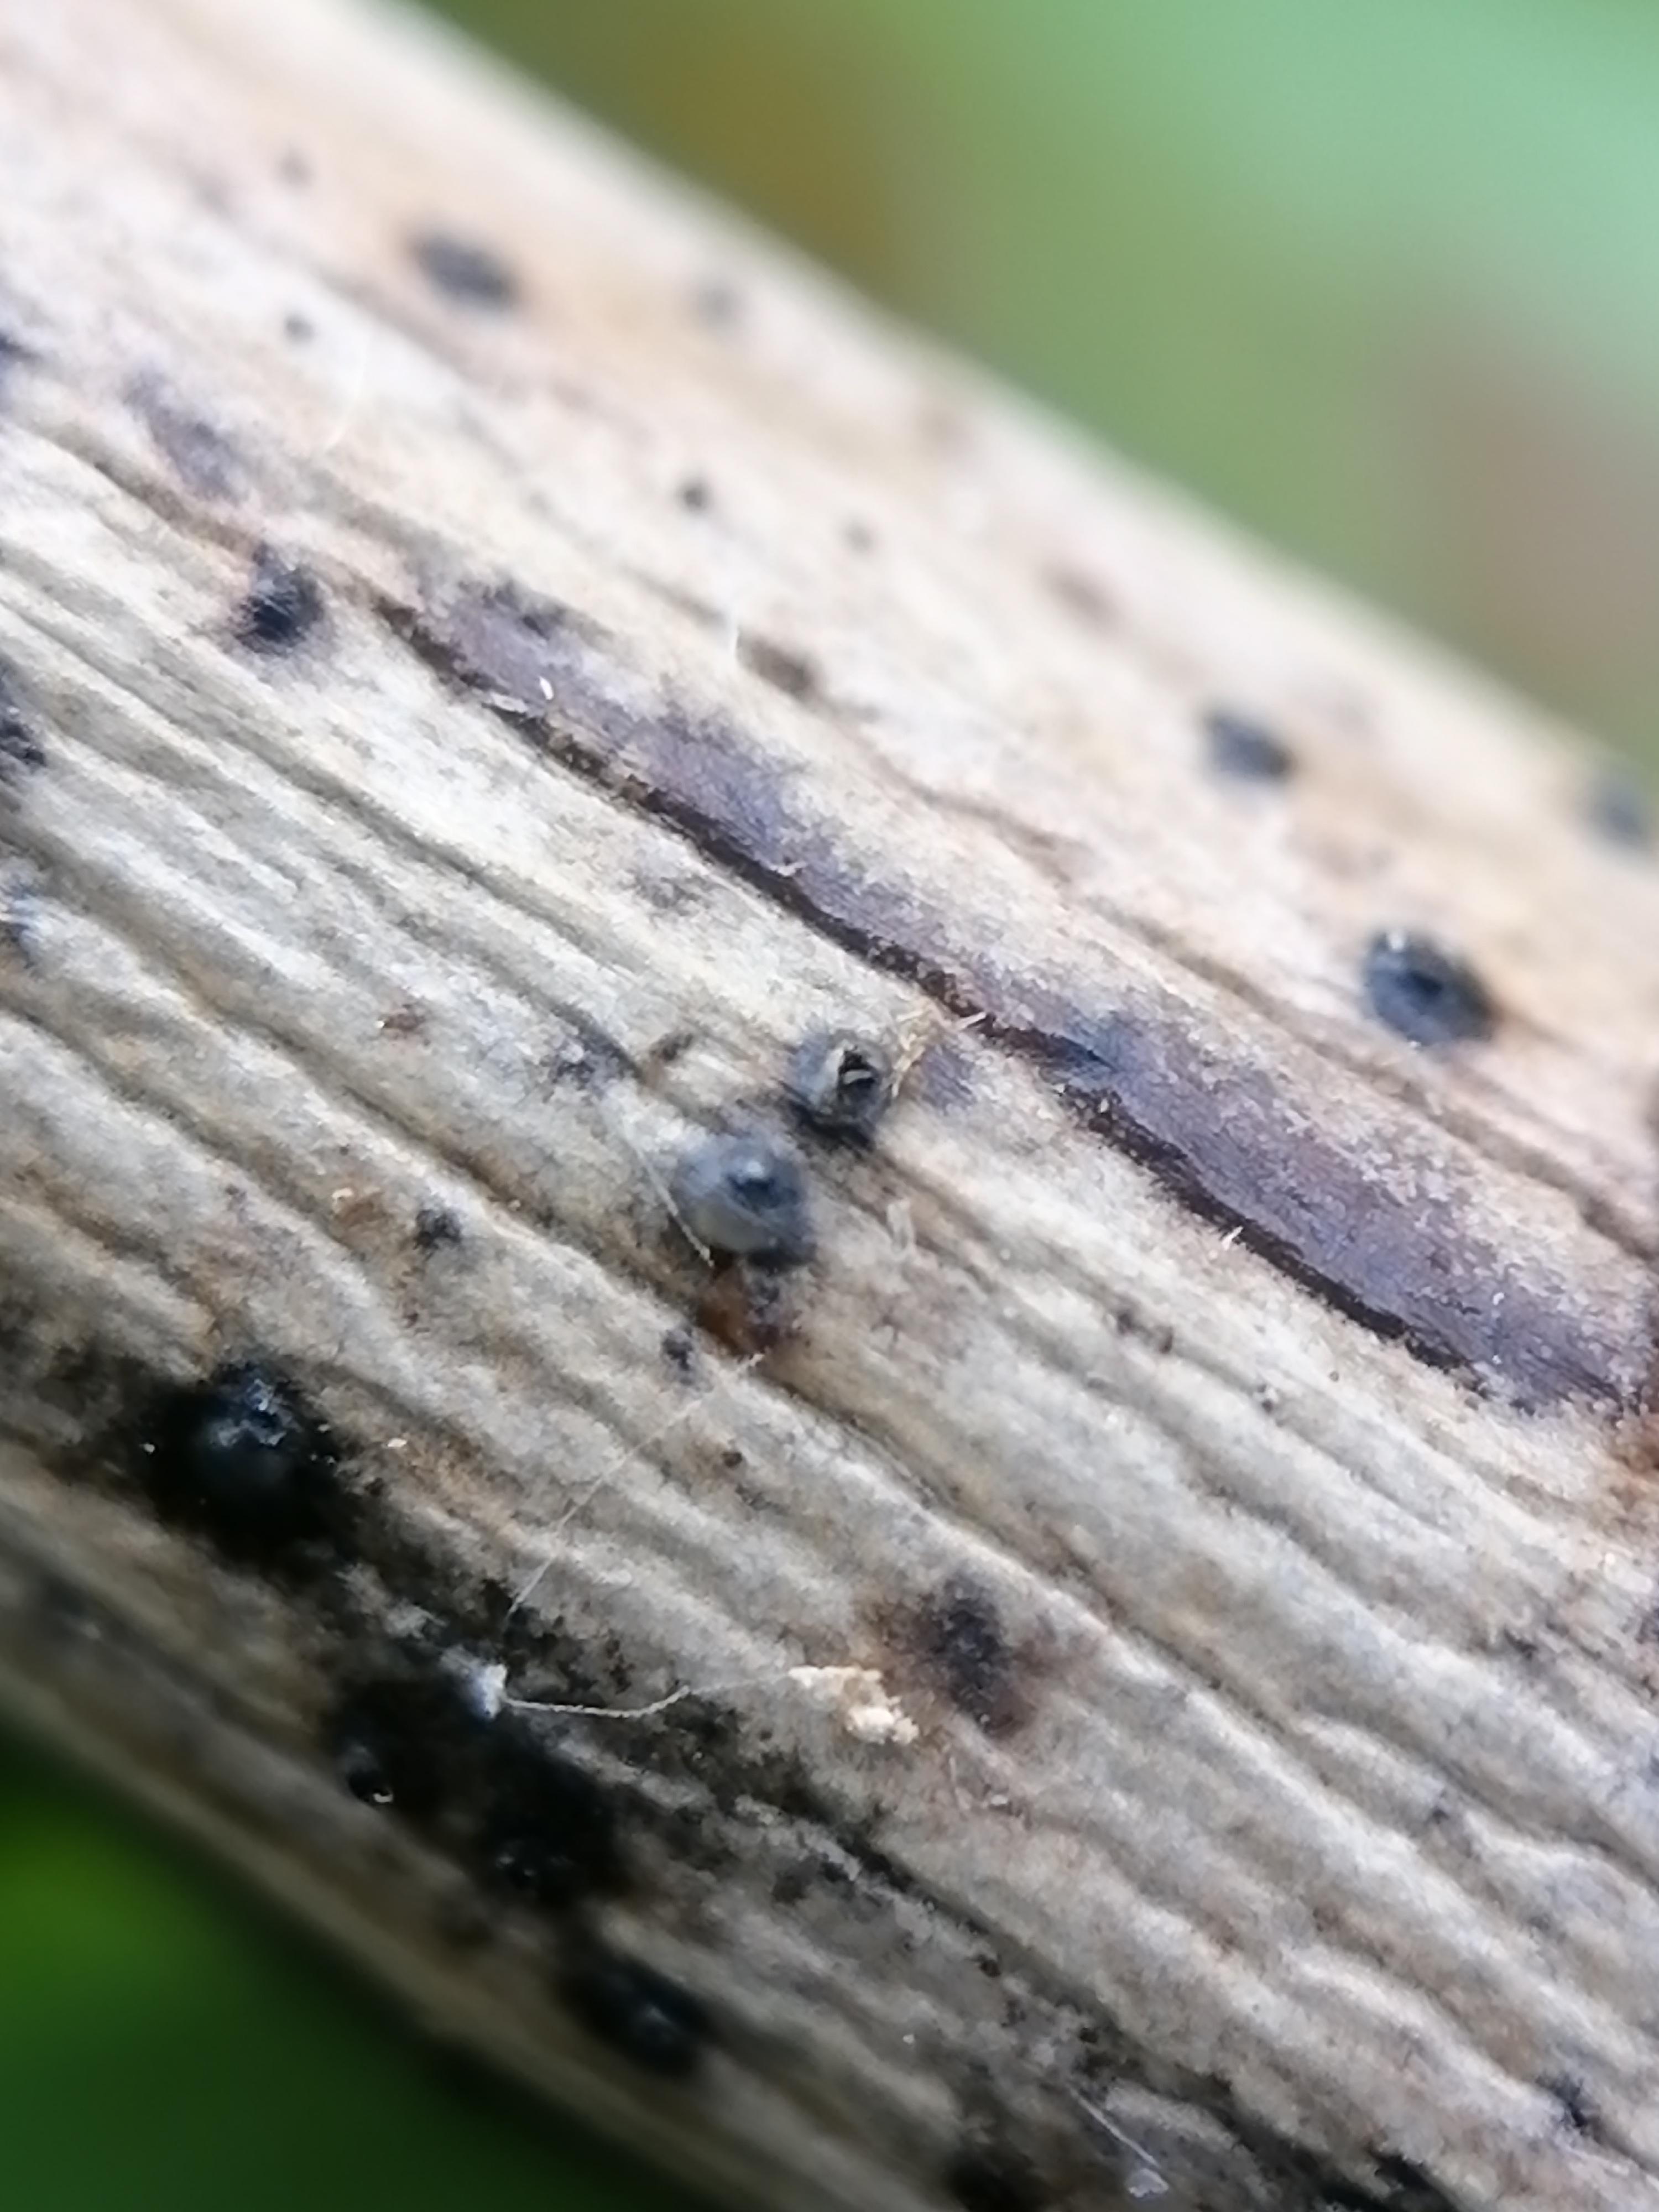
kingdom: Fungi
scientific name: Fungi
